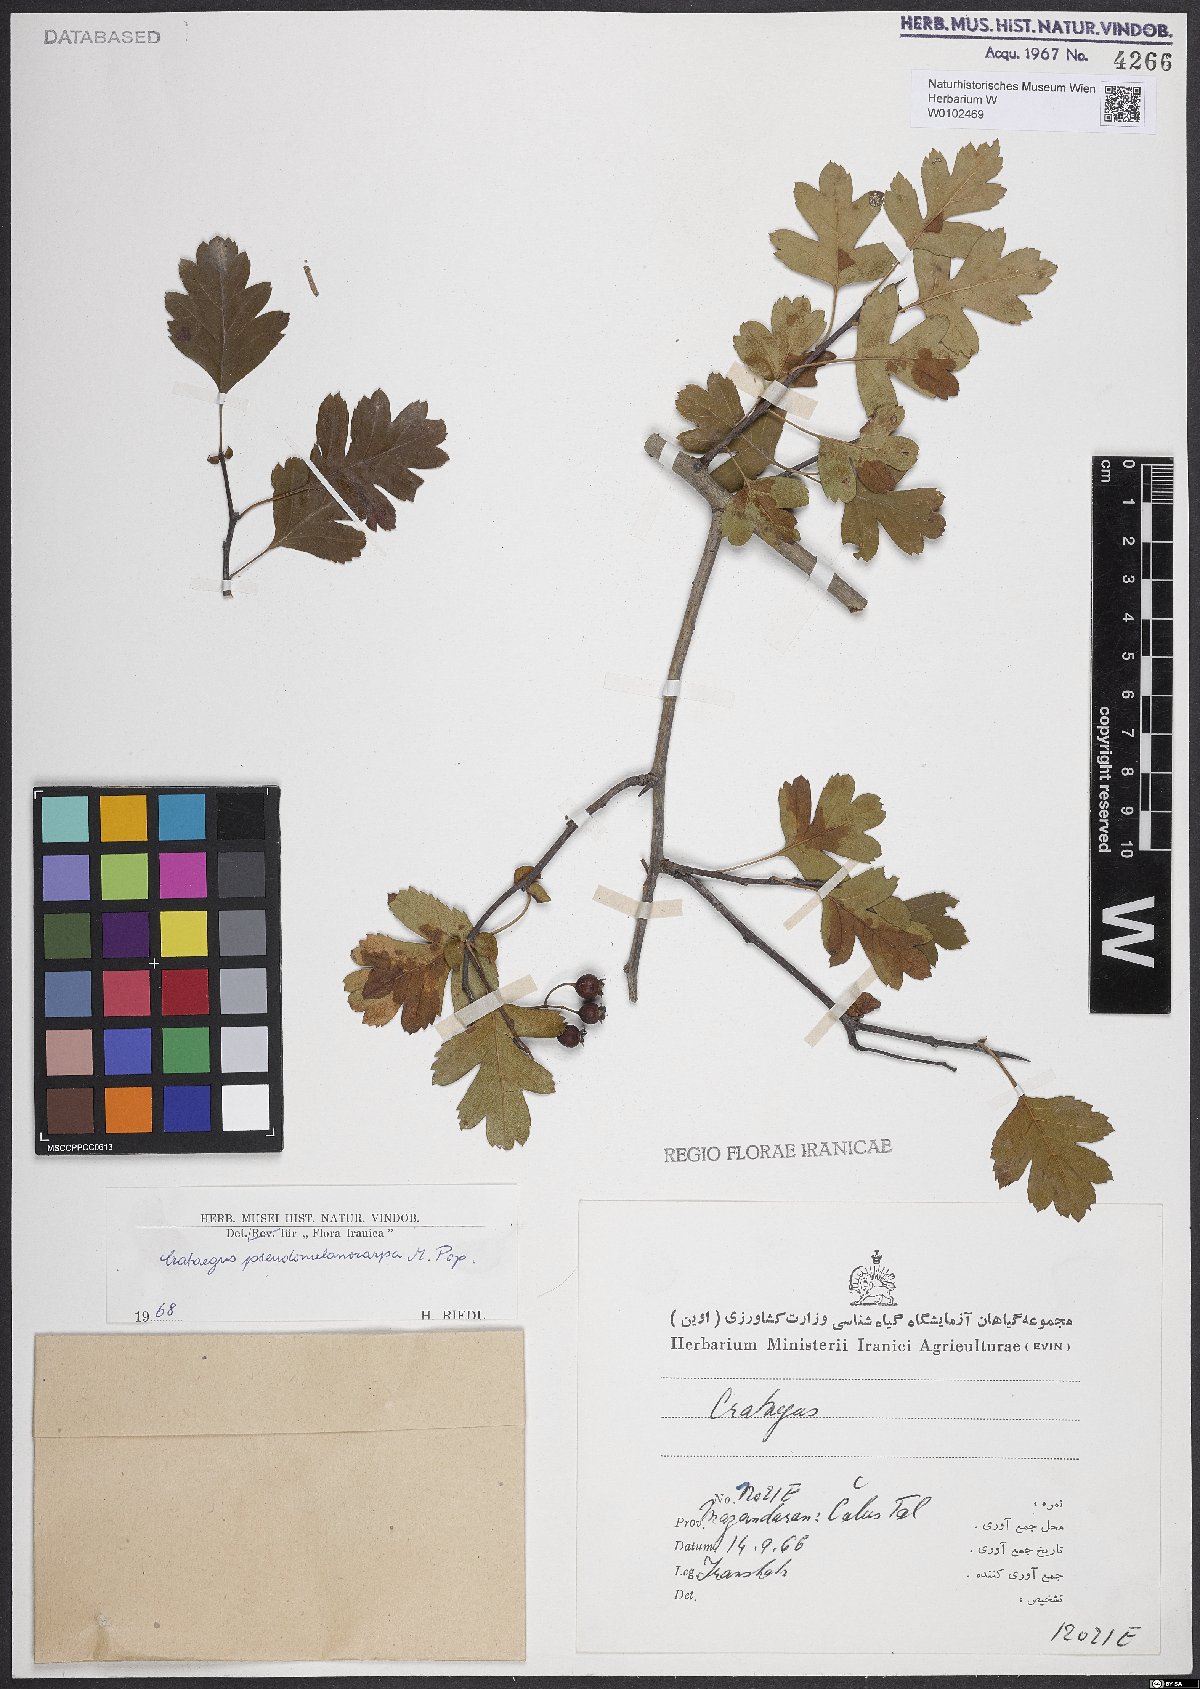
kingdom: Plantae
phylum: Tracheophyta
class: Magnoliopsida
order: Rosales
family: Rosaceae
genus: Crataegus
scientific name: Crataegus pentagyna
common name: Small-flowered black hawthorn
